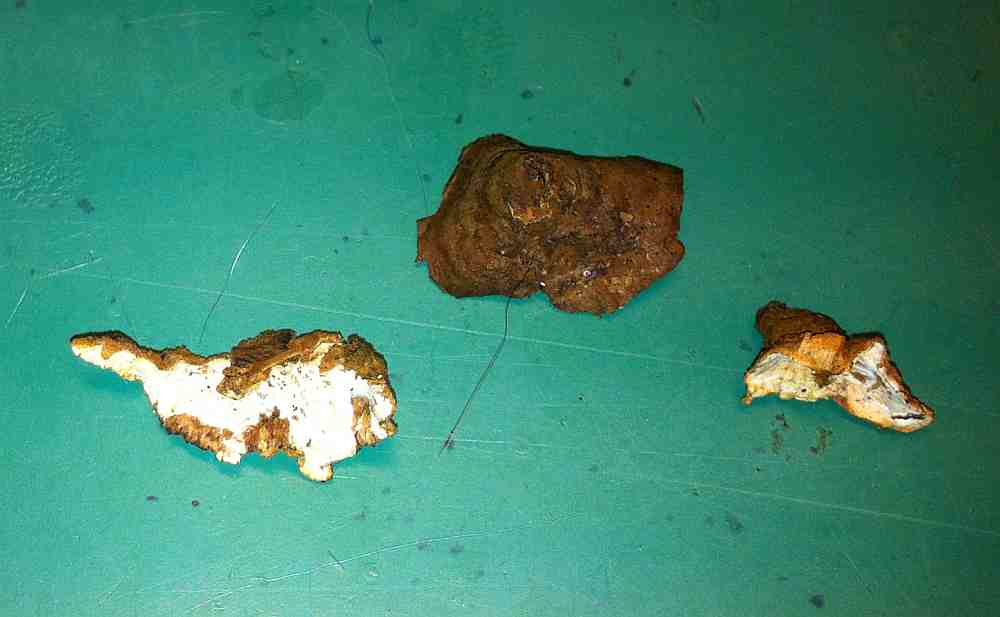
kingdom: Fungi
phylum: Basidiomycota
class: Agaricomycetes
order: Russulales
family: Hericiaceae
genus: Laxitextum
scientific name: Laxitextum bicolor
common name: tvefarvet filtskind
